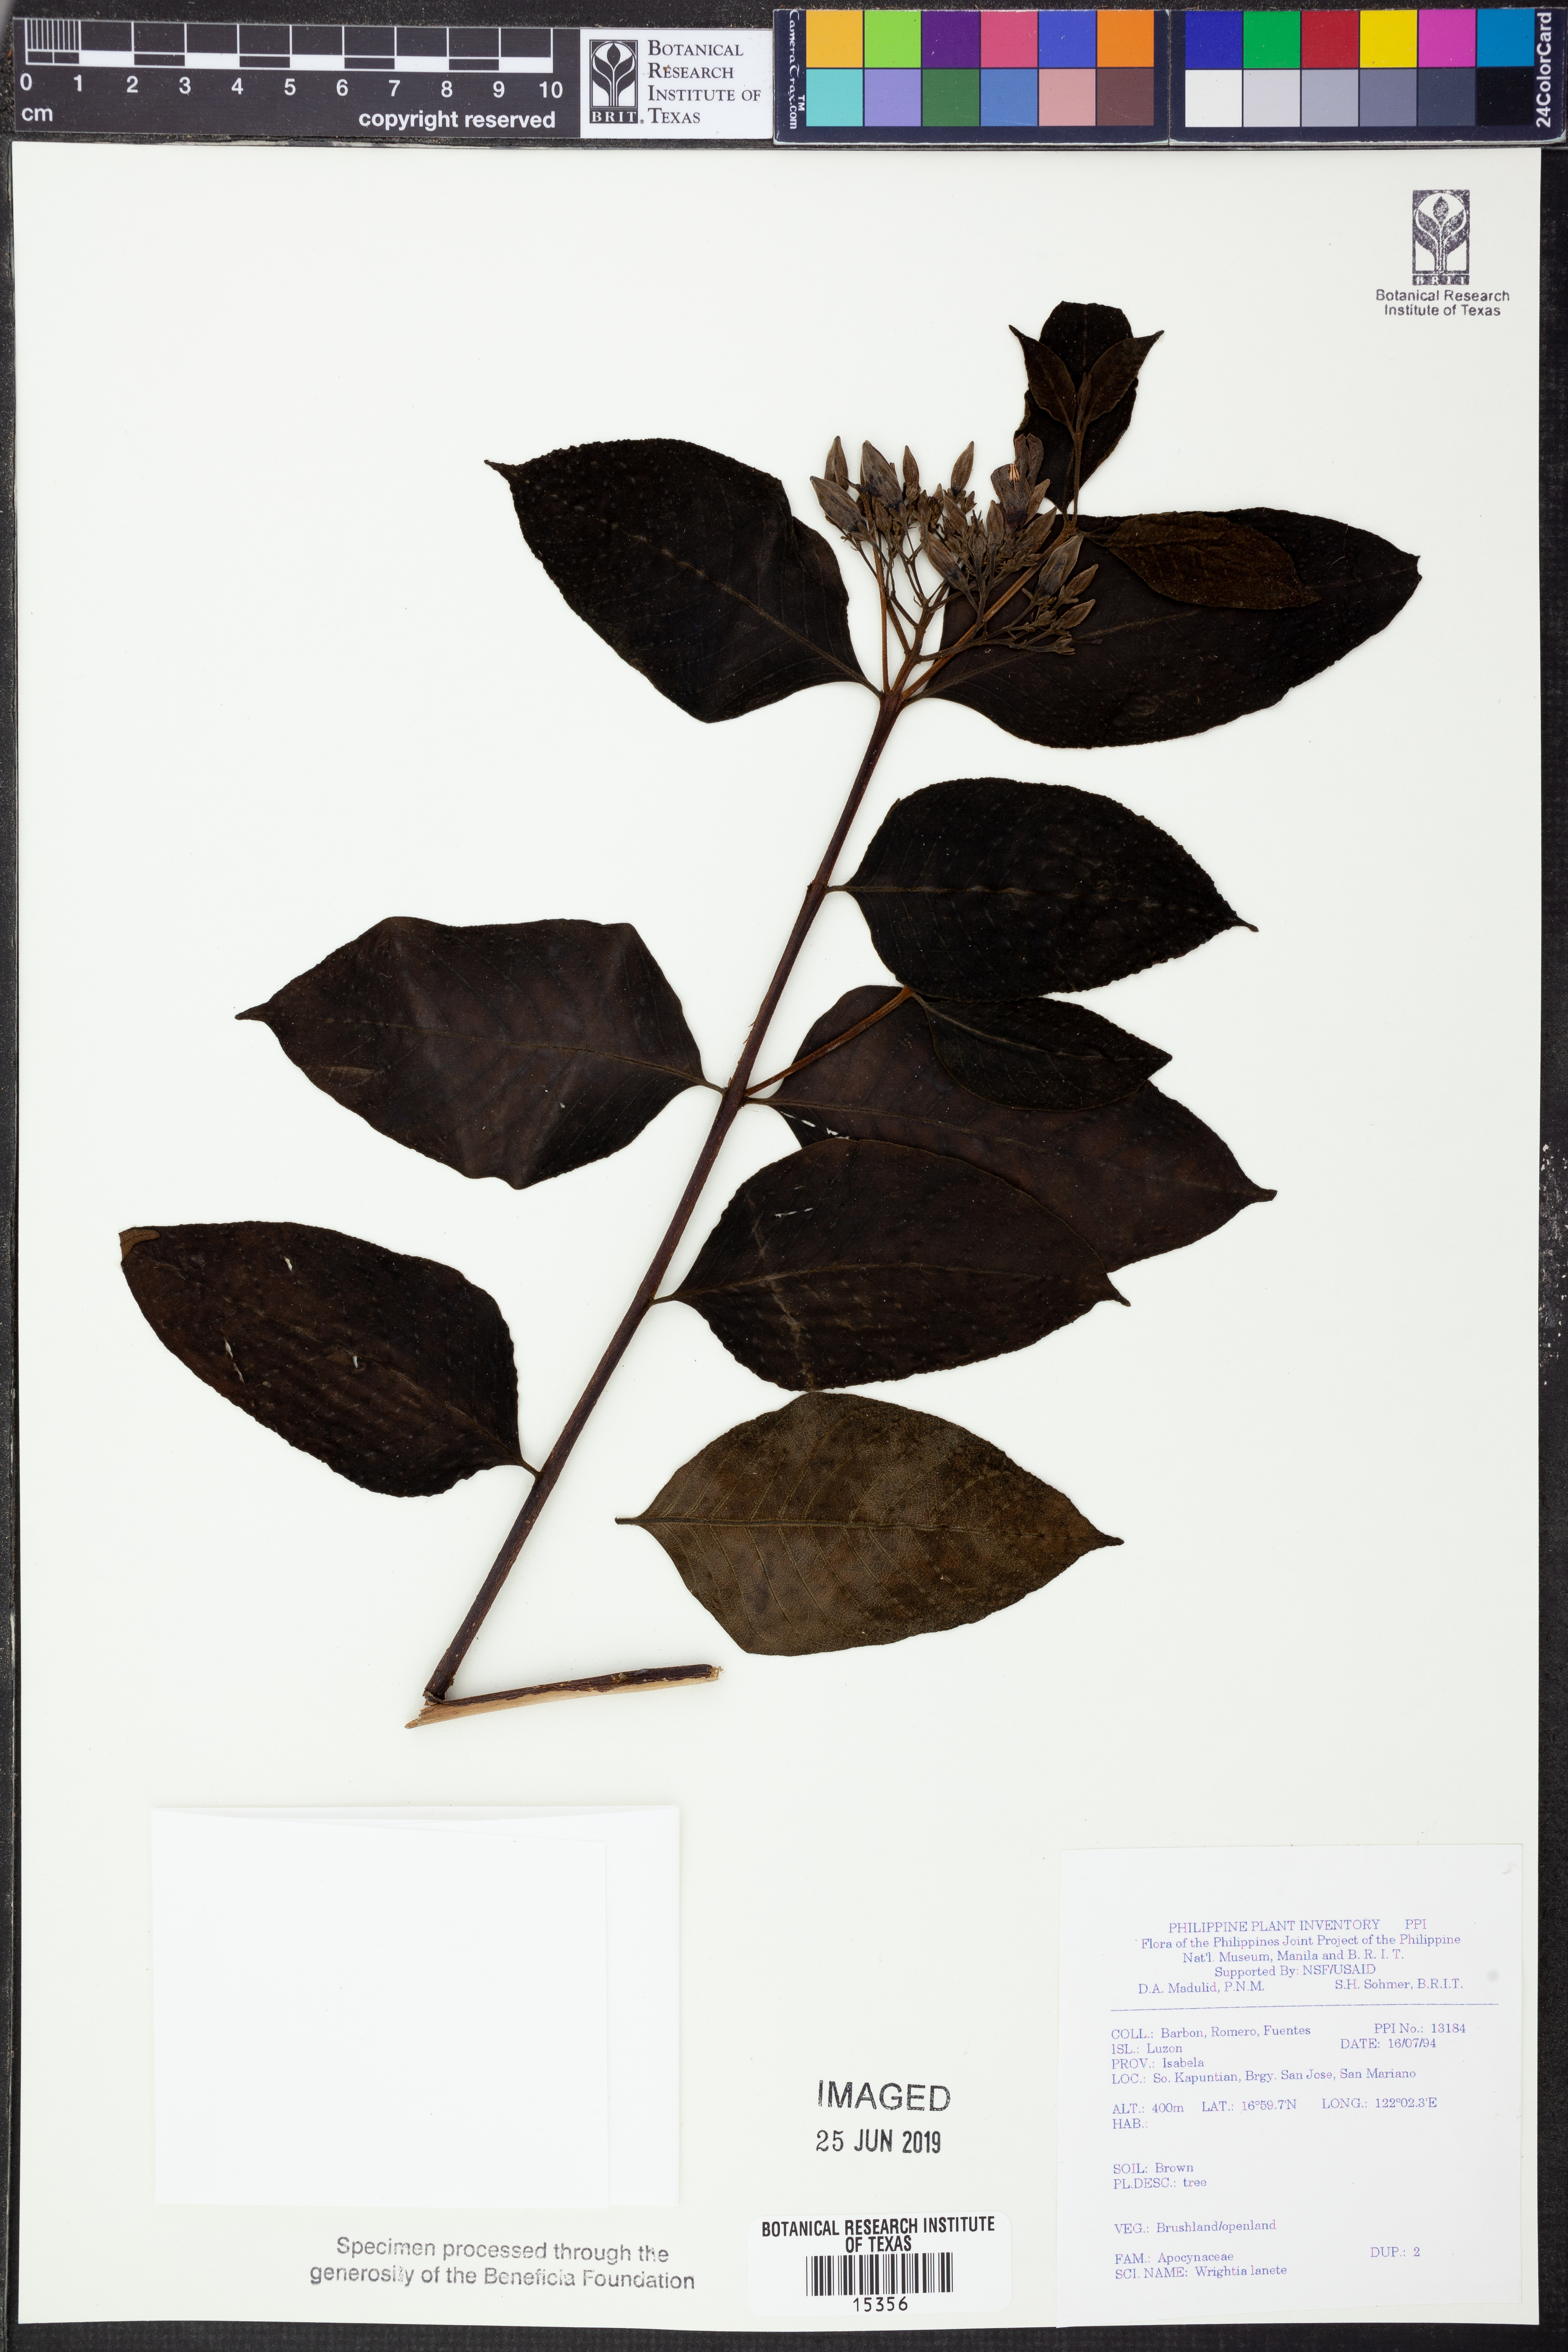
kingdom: Plantae
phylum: Tracheophyta
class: Magnoliopsida
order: Gentianales
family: Apocynaceae
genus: Wrightia
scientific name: Wrightia pubescens
